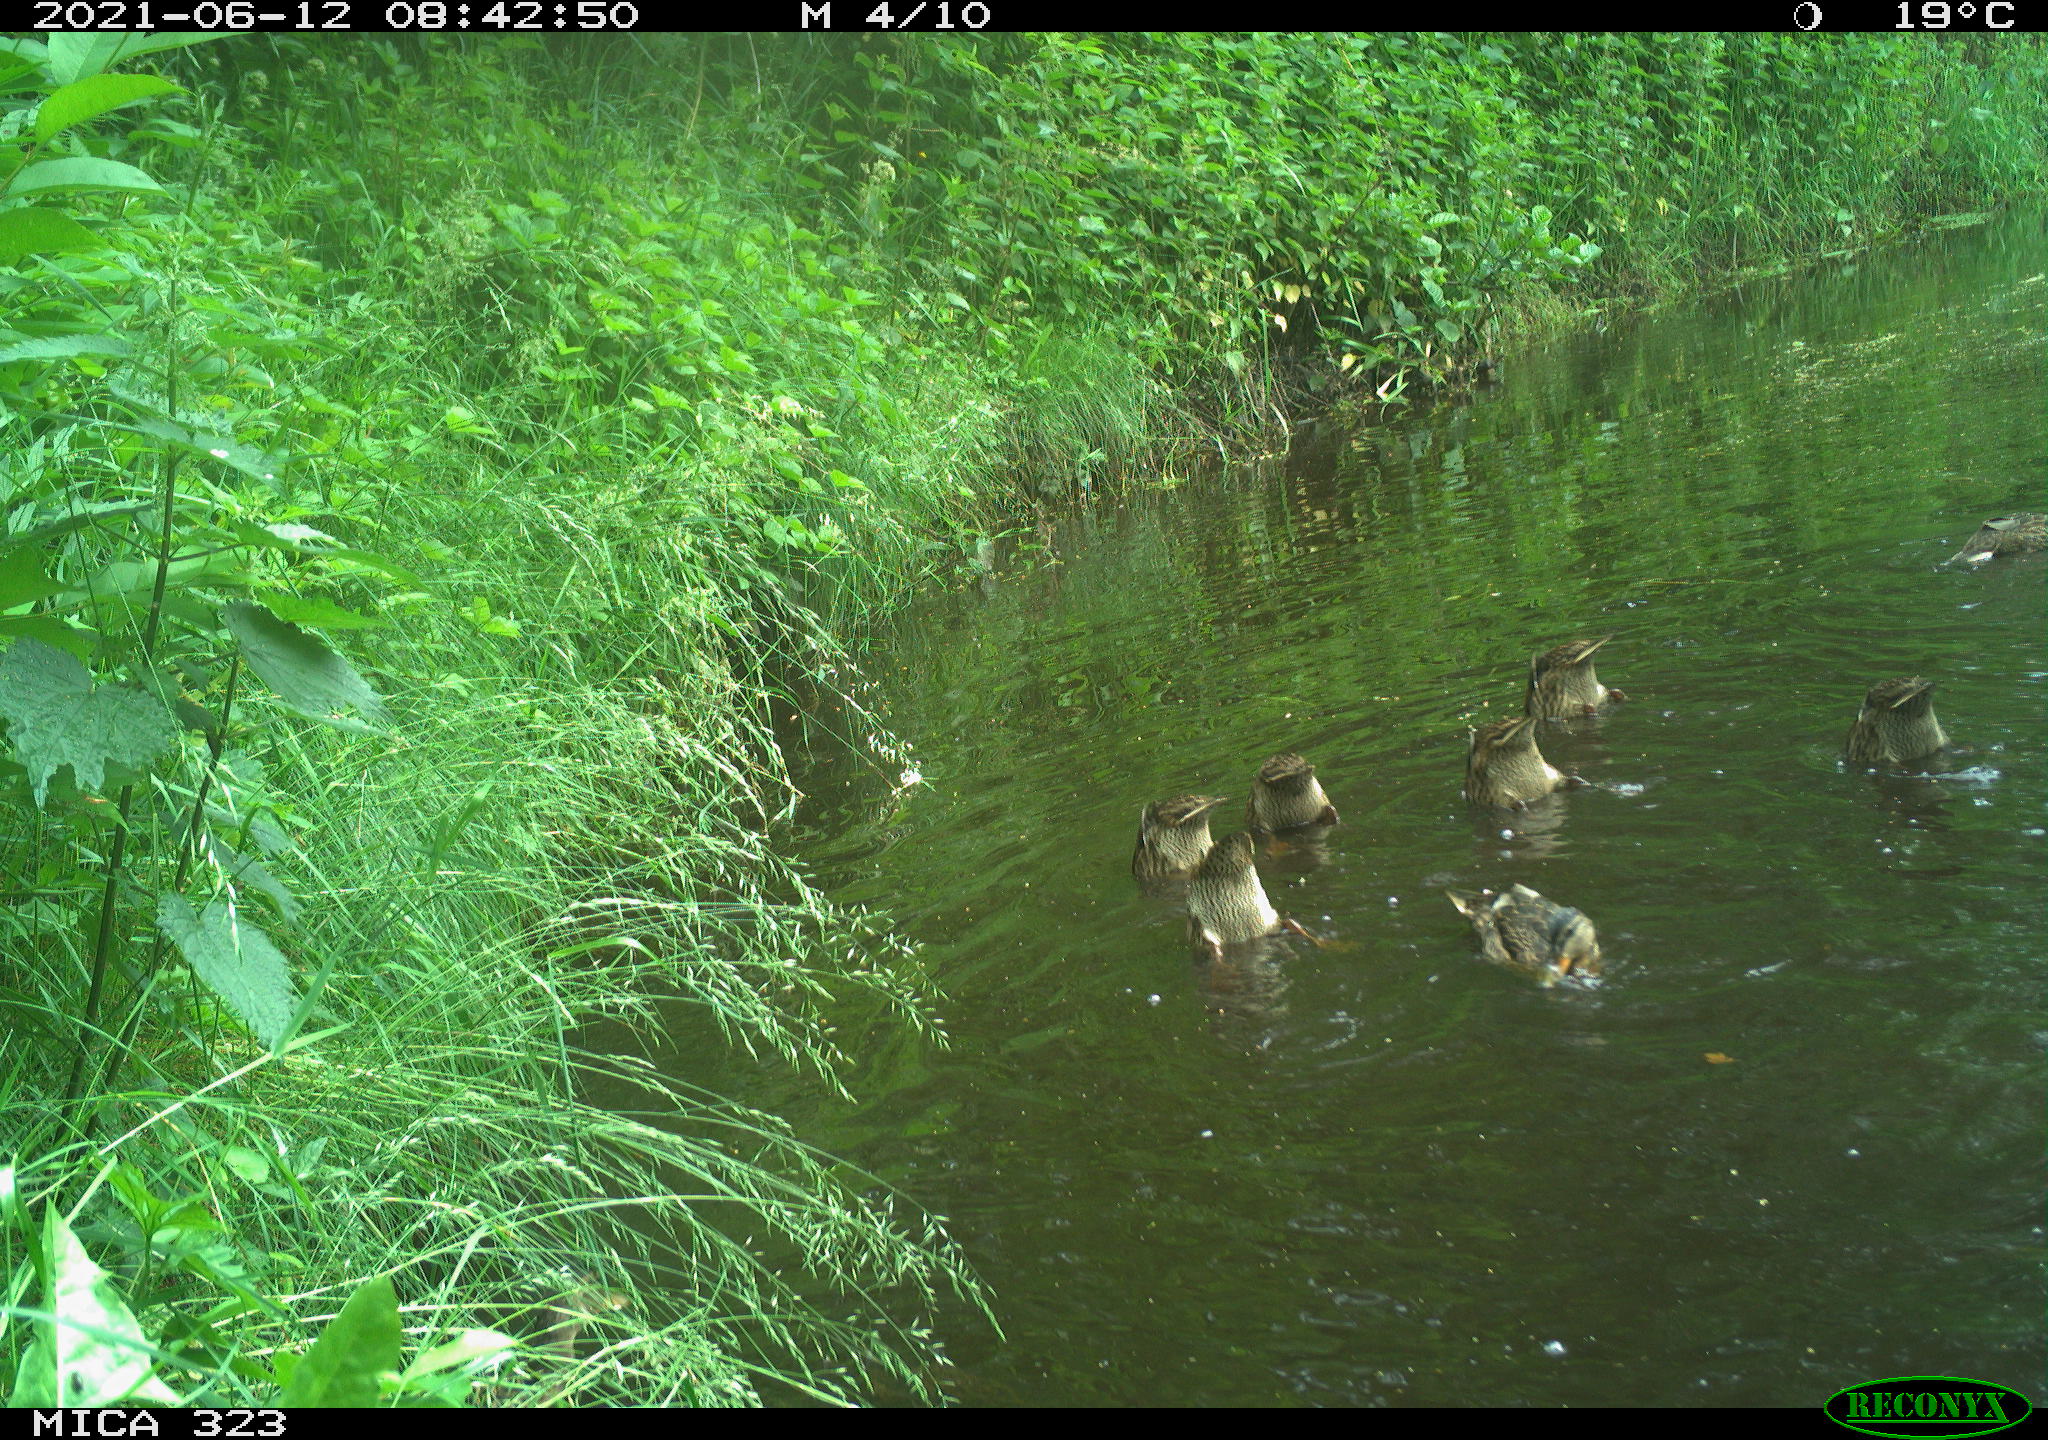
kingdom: Animalia
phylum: Chordata
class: Aves
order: Anseriformes
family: Anatidae
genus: Anas
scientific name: Anas platyrhynchos
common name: Mallard
